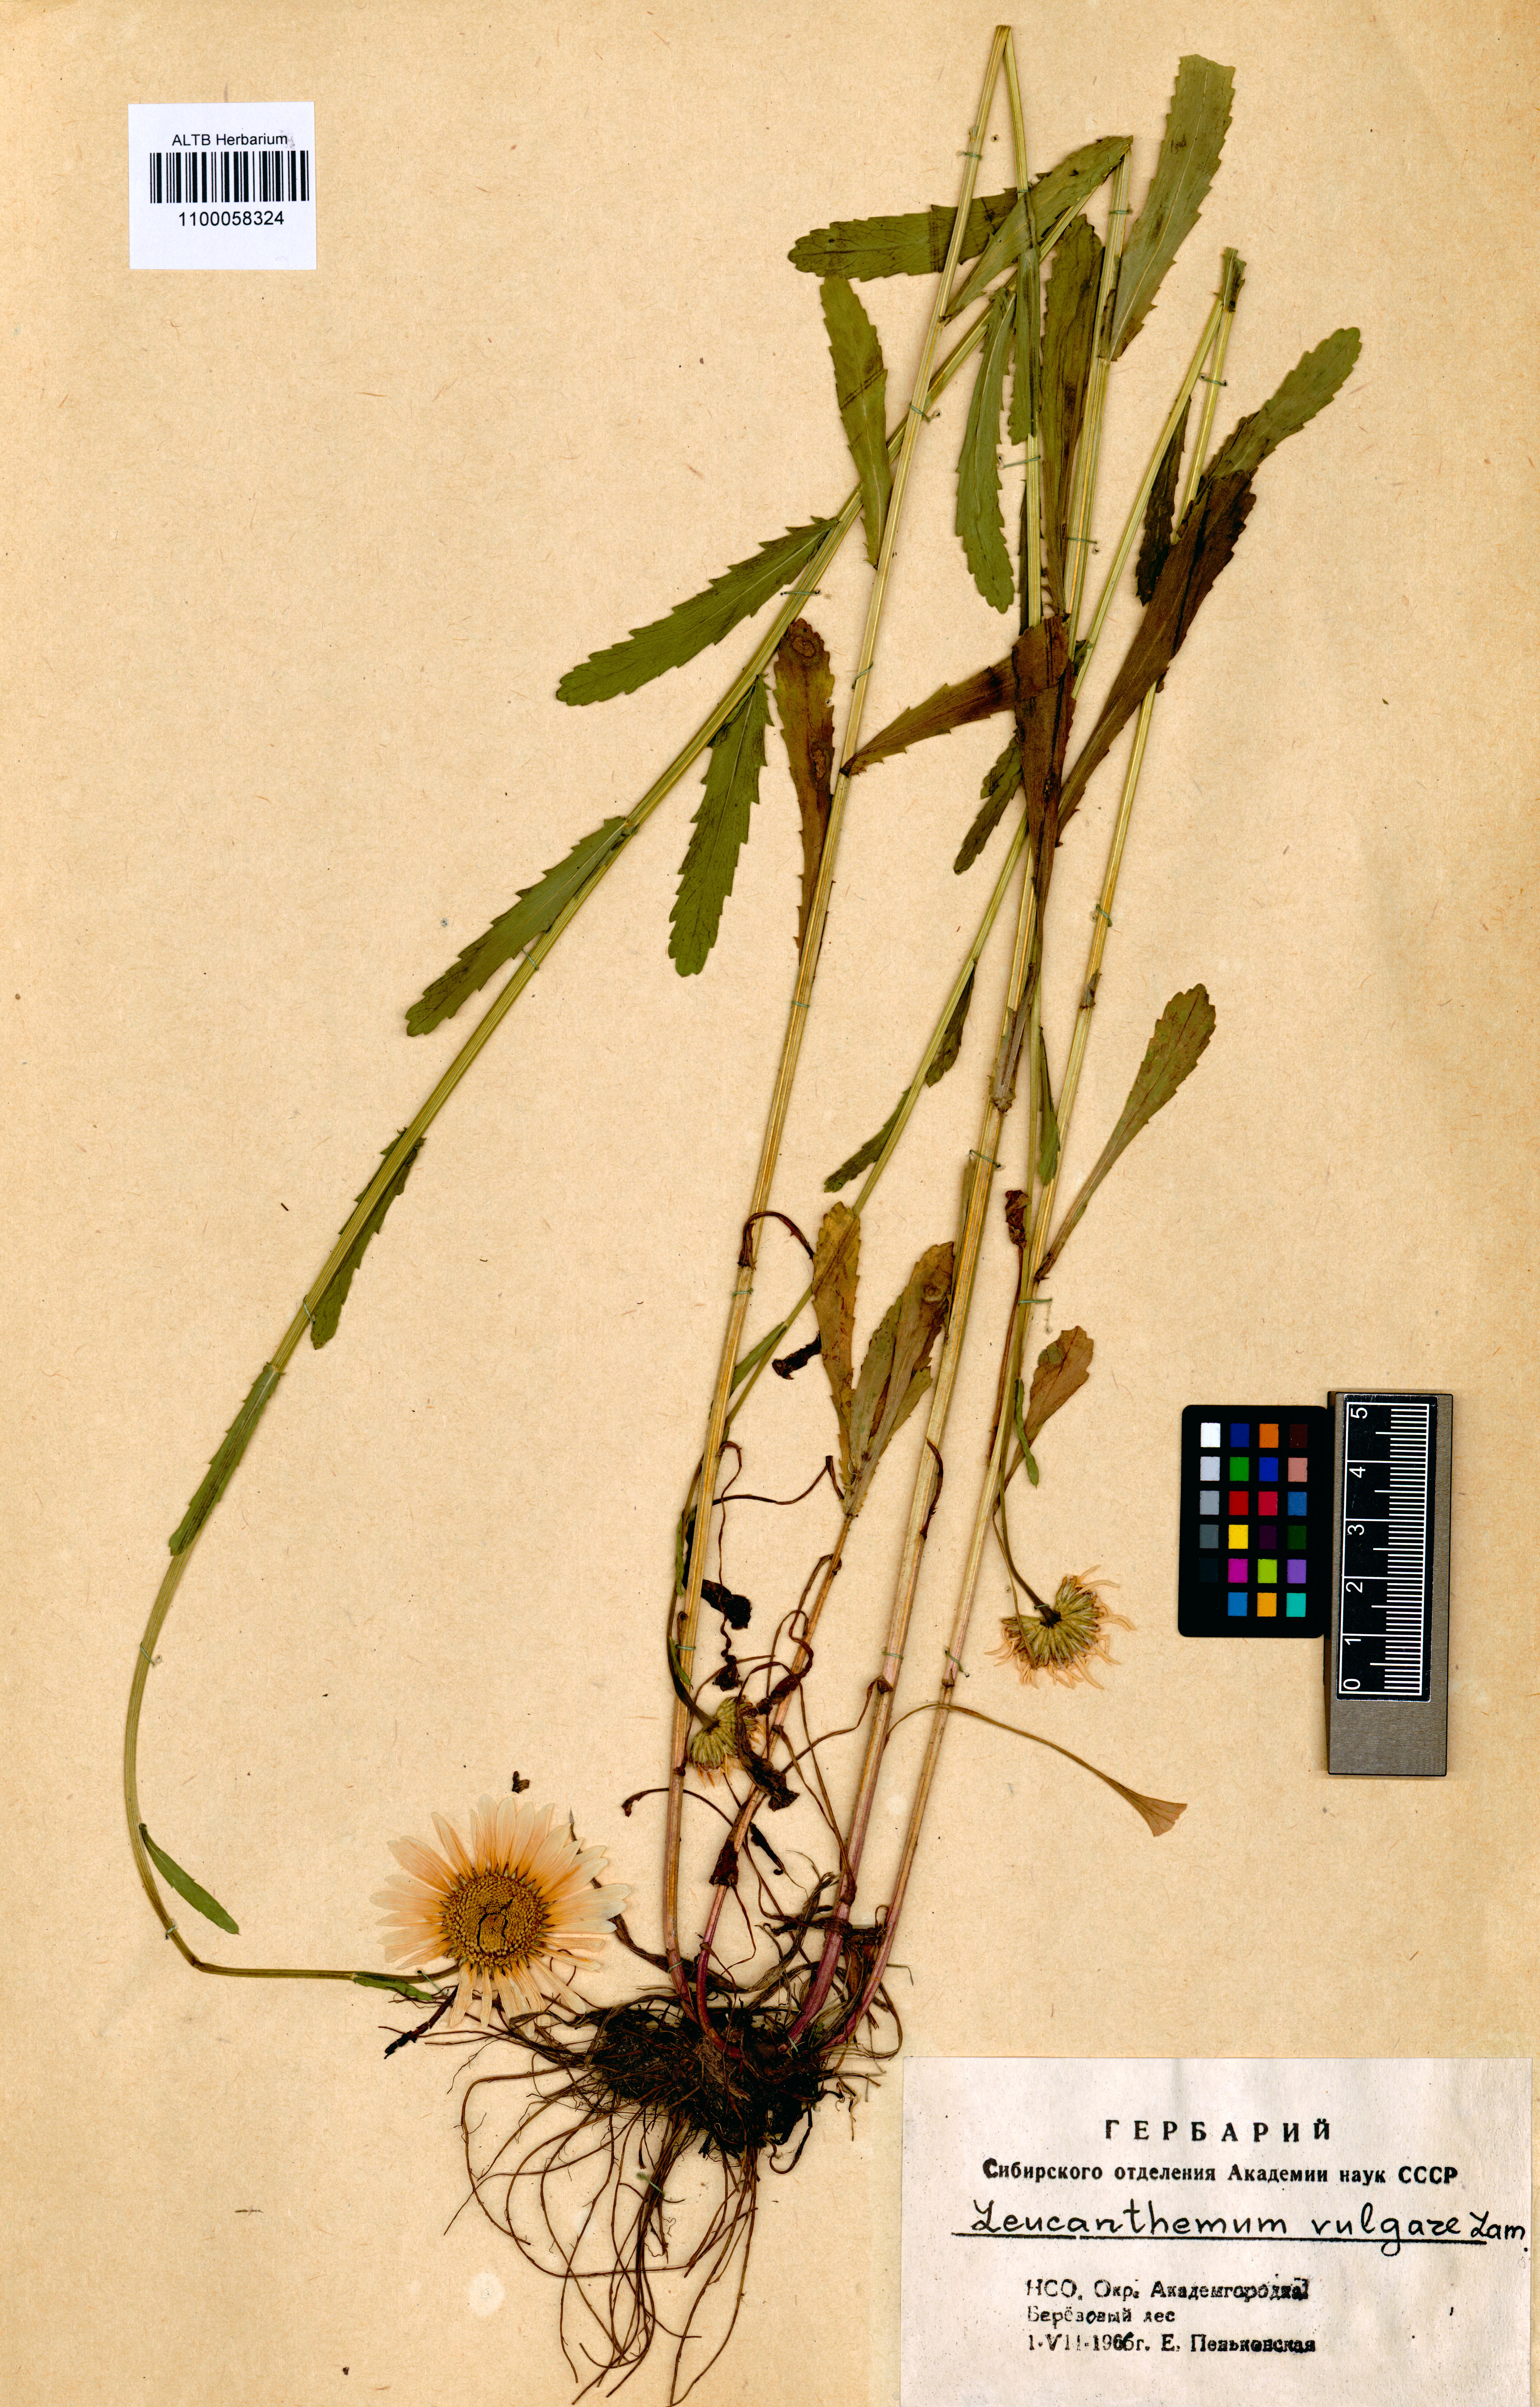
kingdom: Plantae
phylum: Tracheophyta
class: Magnoliopsida
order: Asterales
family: Asteraceae
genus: Leucanthemum
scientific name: Leucanthemum vulgare
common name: Oxeye daisy
